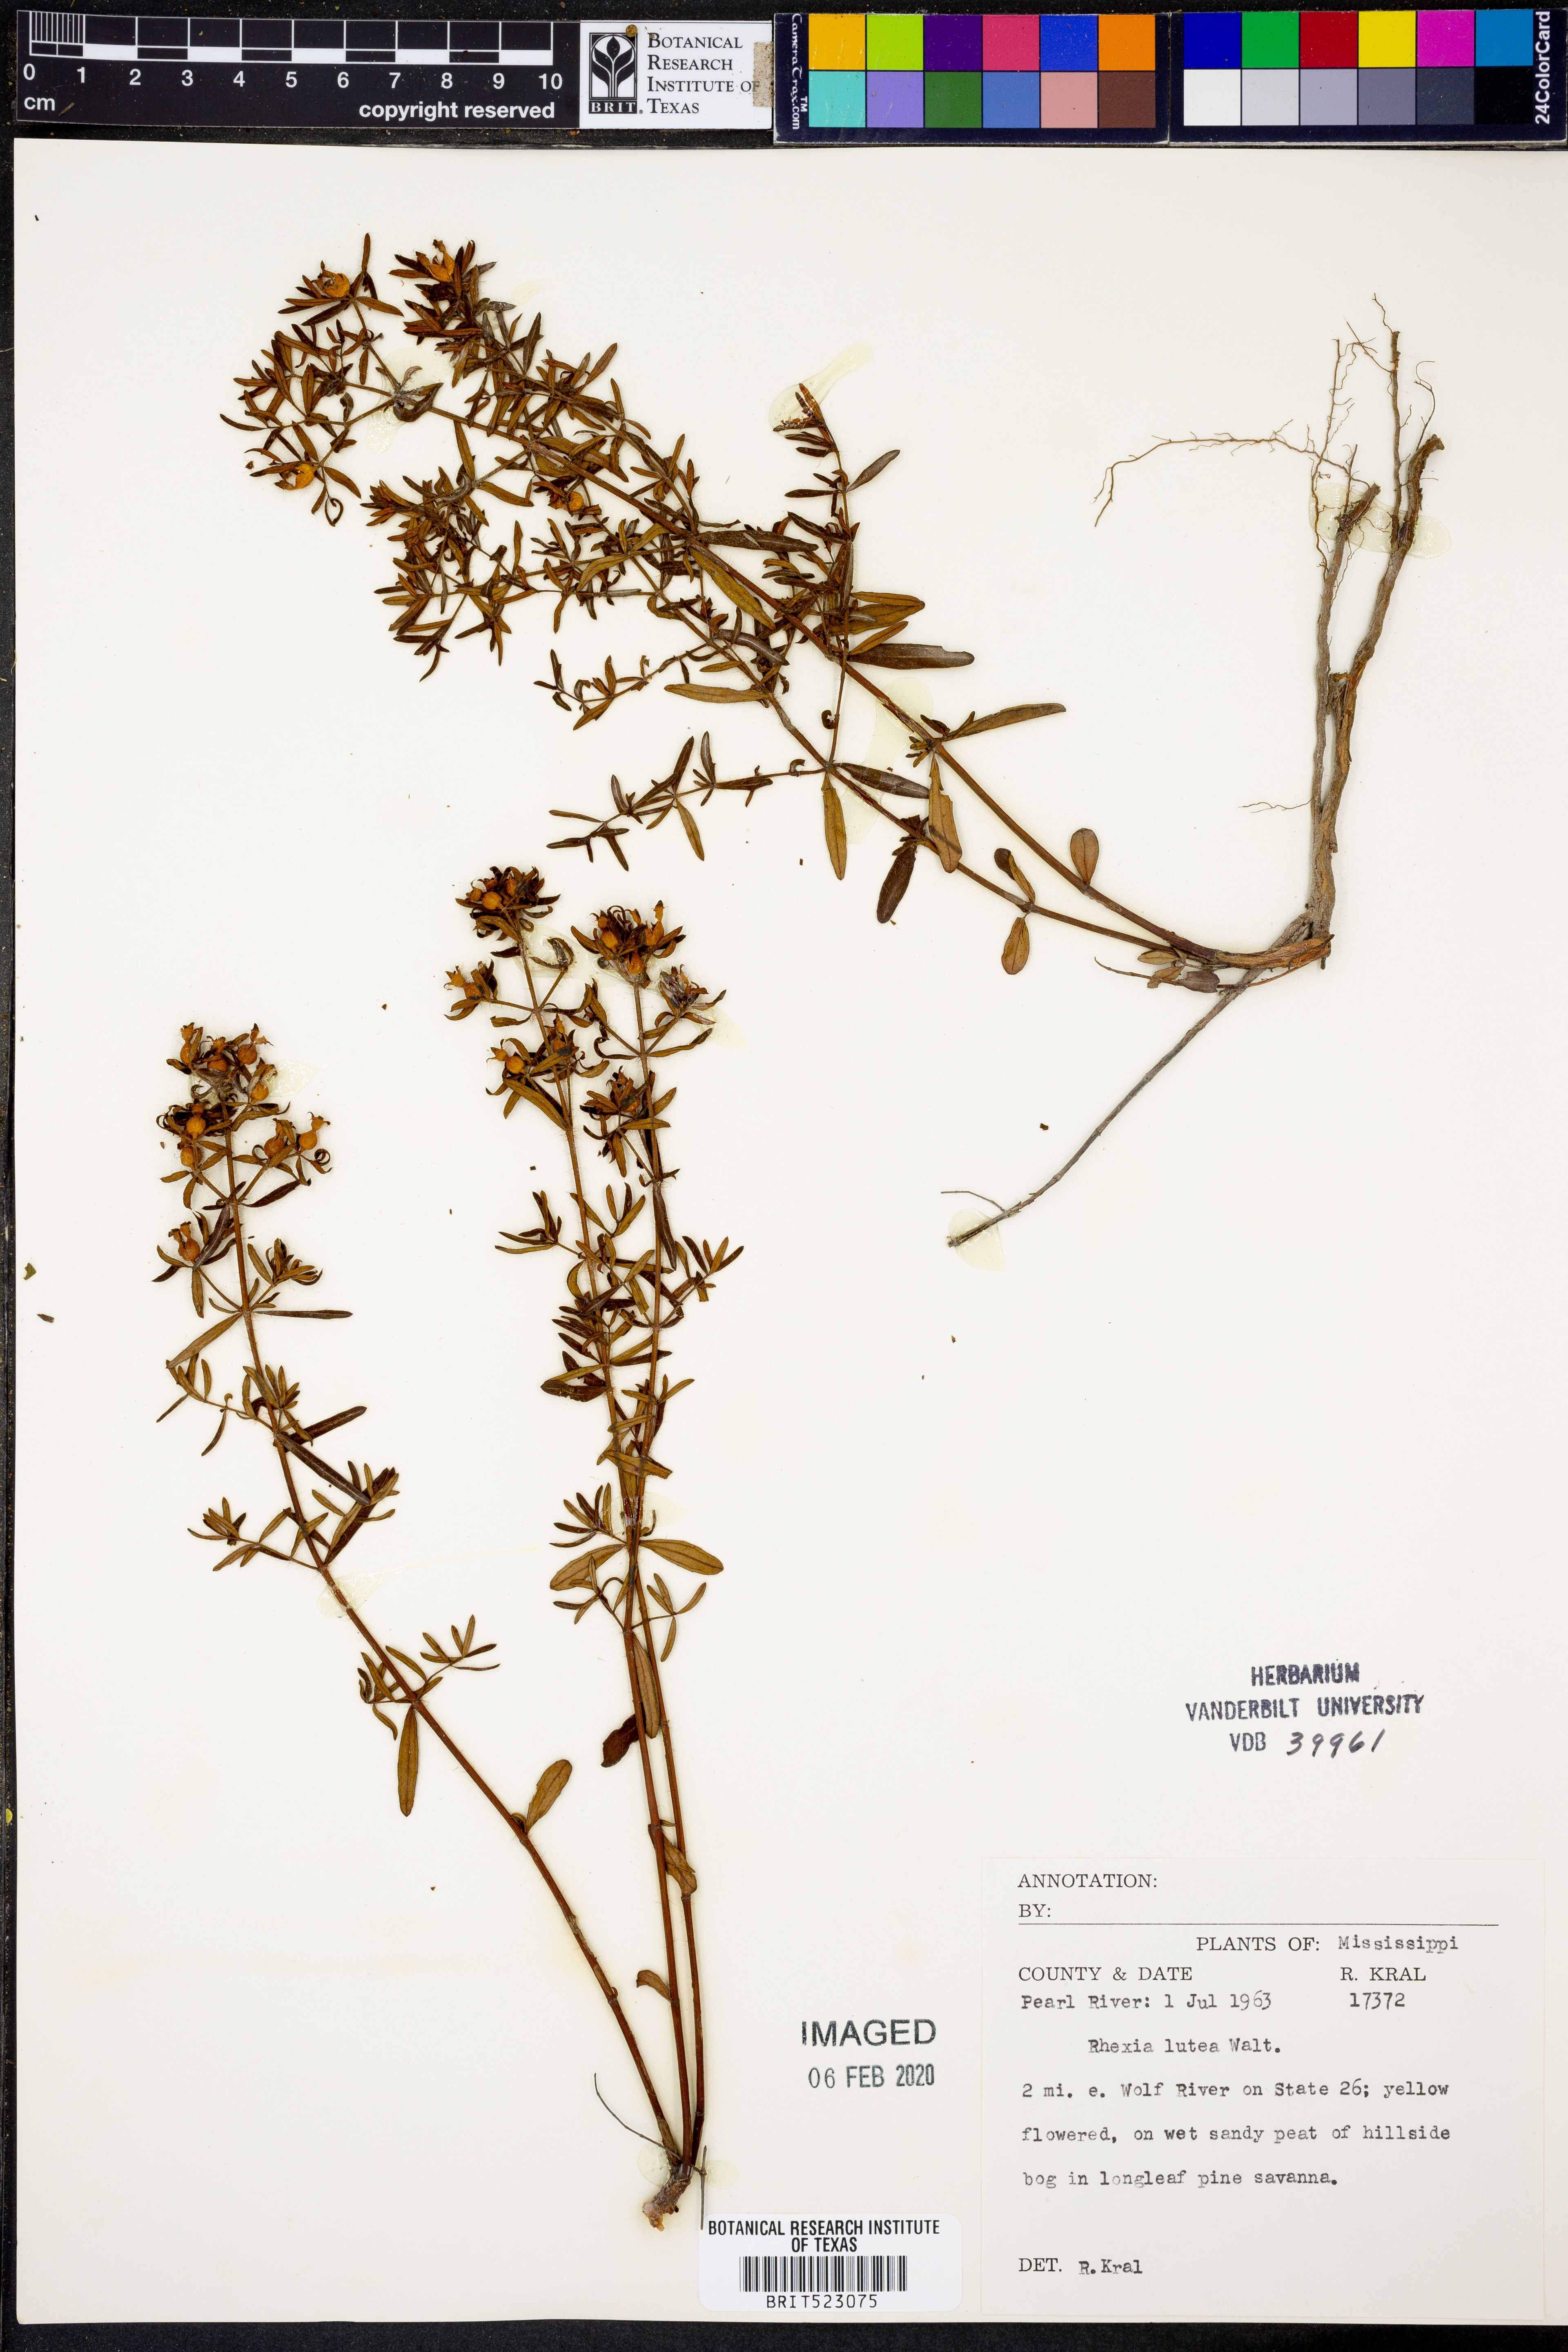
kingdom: Plantae
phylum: Tracheophyta
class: Magnoliopsida
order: Myrtales
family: Melastomataceae
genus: Rhexia
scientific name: Rhexia lutea
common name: Golden meadow-beauty
